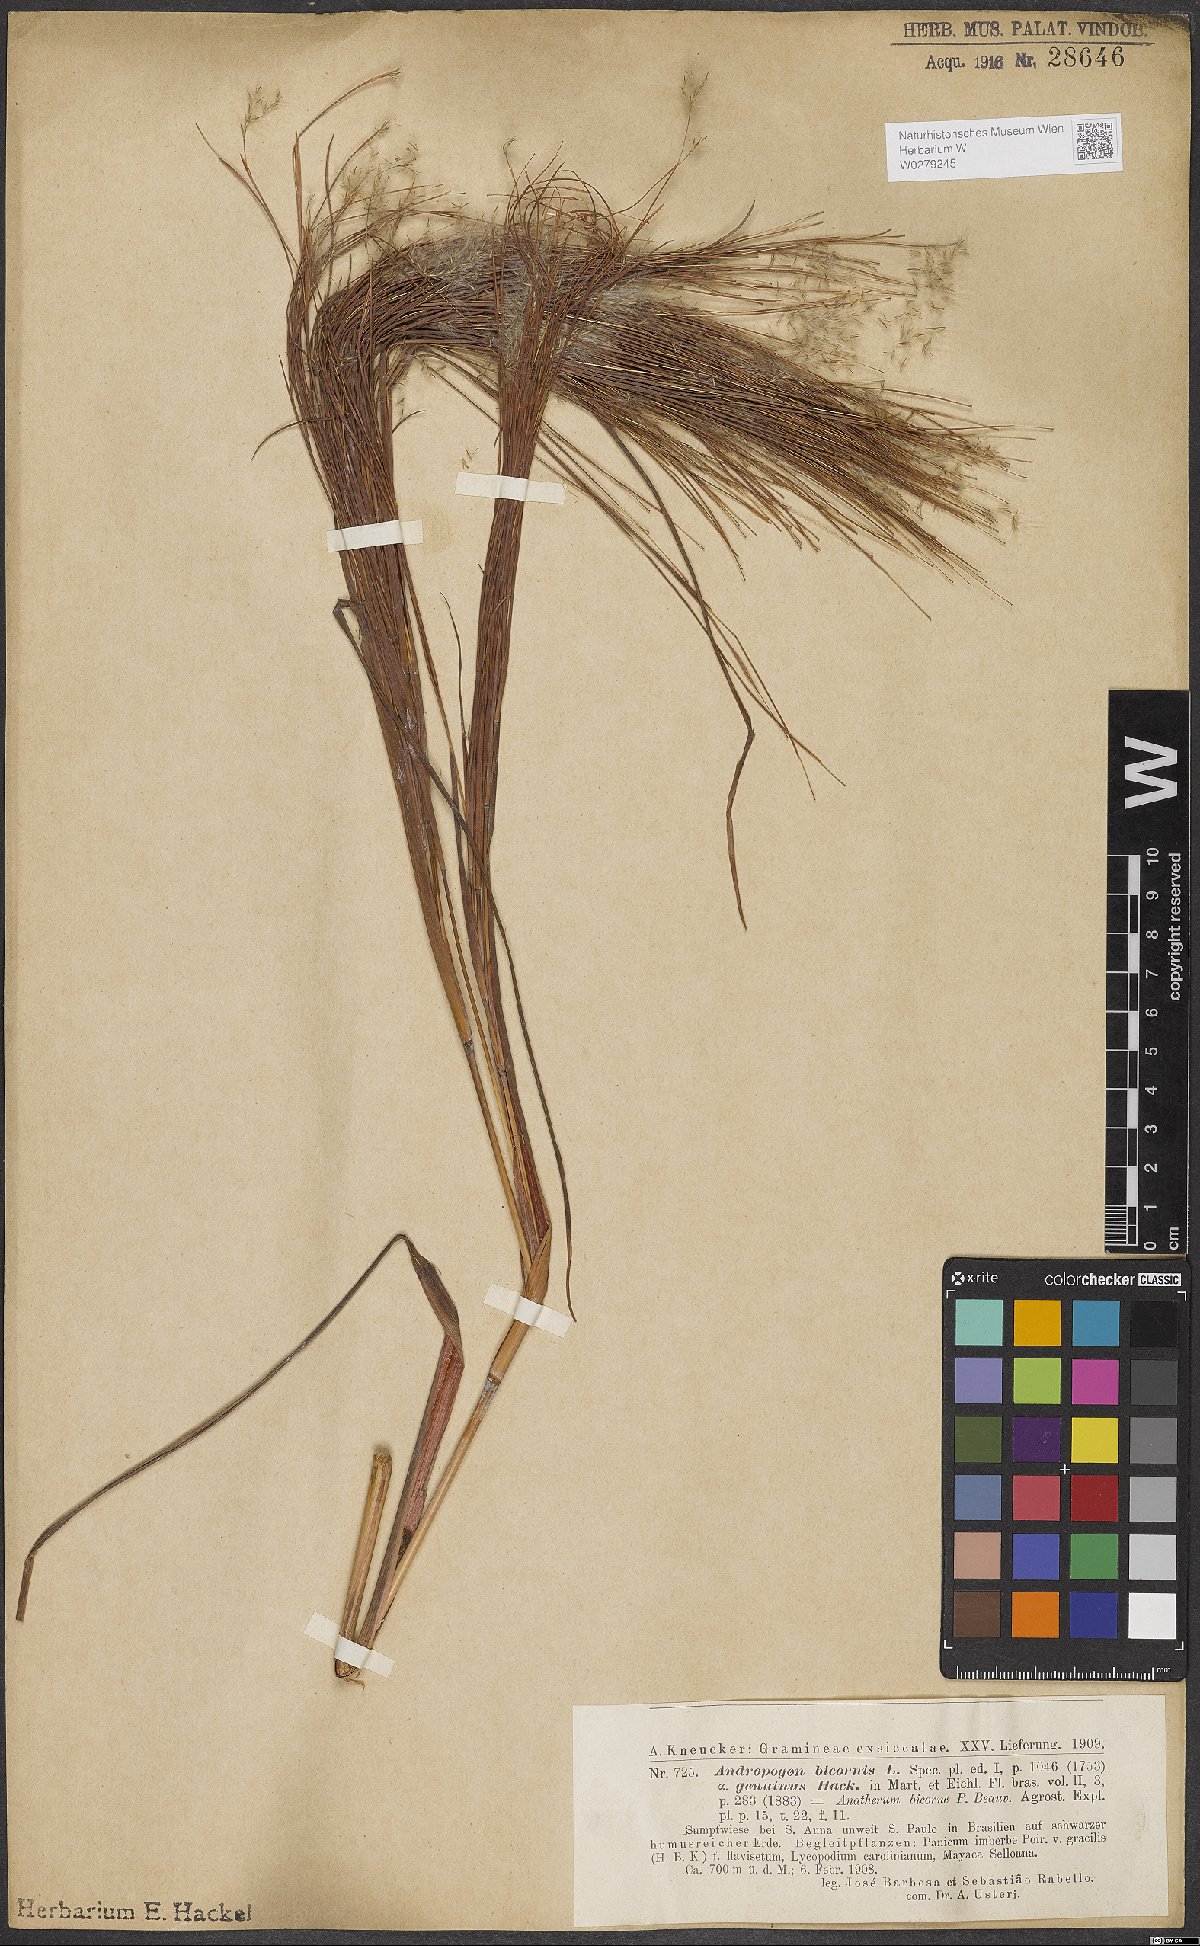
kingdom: Plantae
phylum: Tracheophyta
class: Liliopsida
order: Poales
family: Poaceae
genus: Andropogon
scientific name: Andropogon bicornis
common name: West indian foxtail grass
